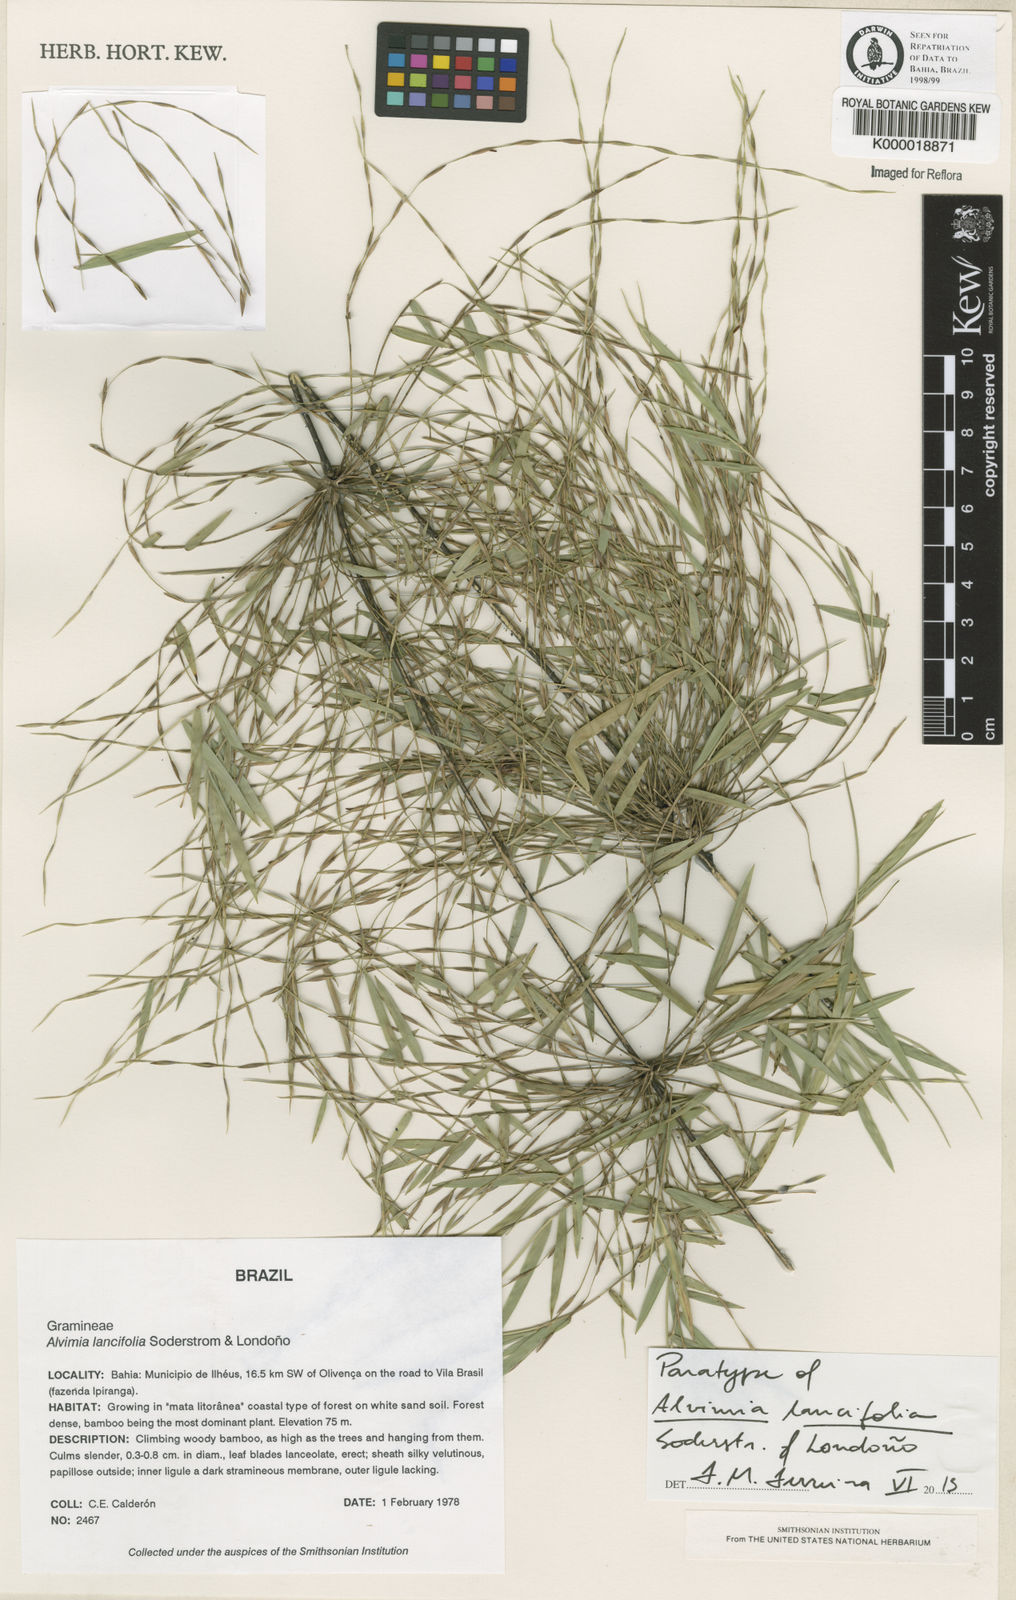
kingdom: Plantae
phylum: Tracheophyta
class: Liliopsida
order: Poales
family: Poaceae
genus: Alvimia
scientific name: Alvimia
